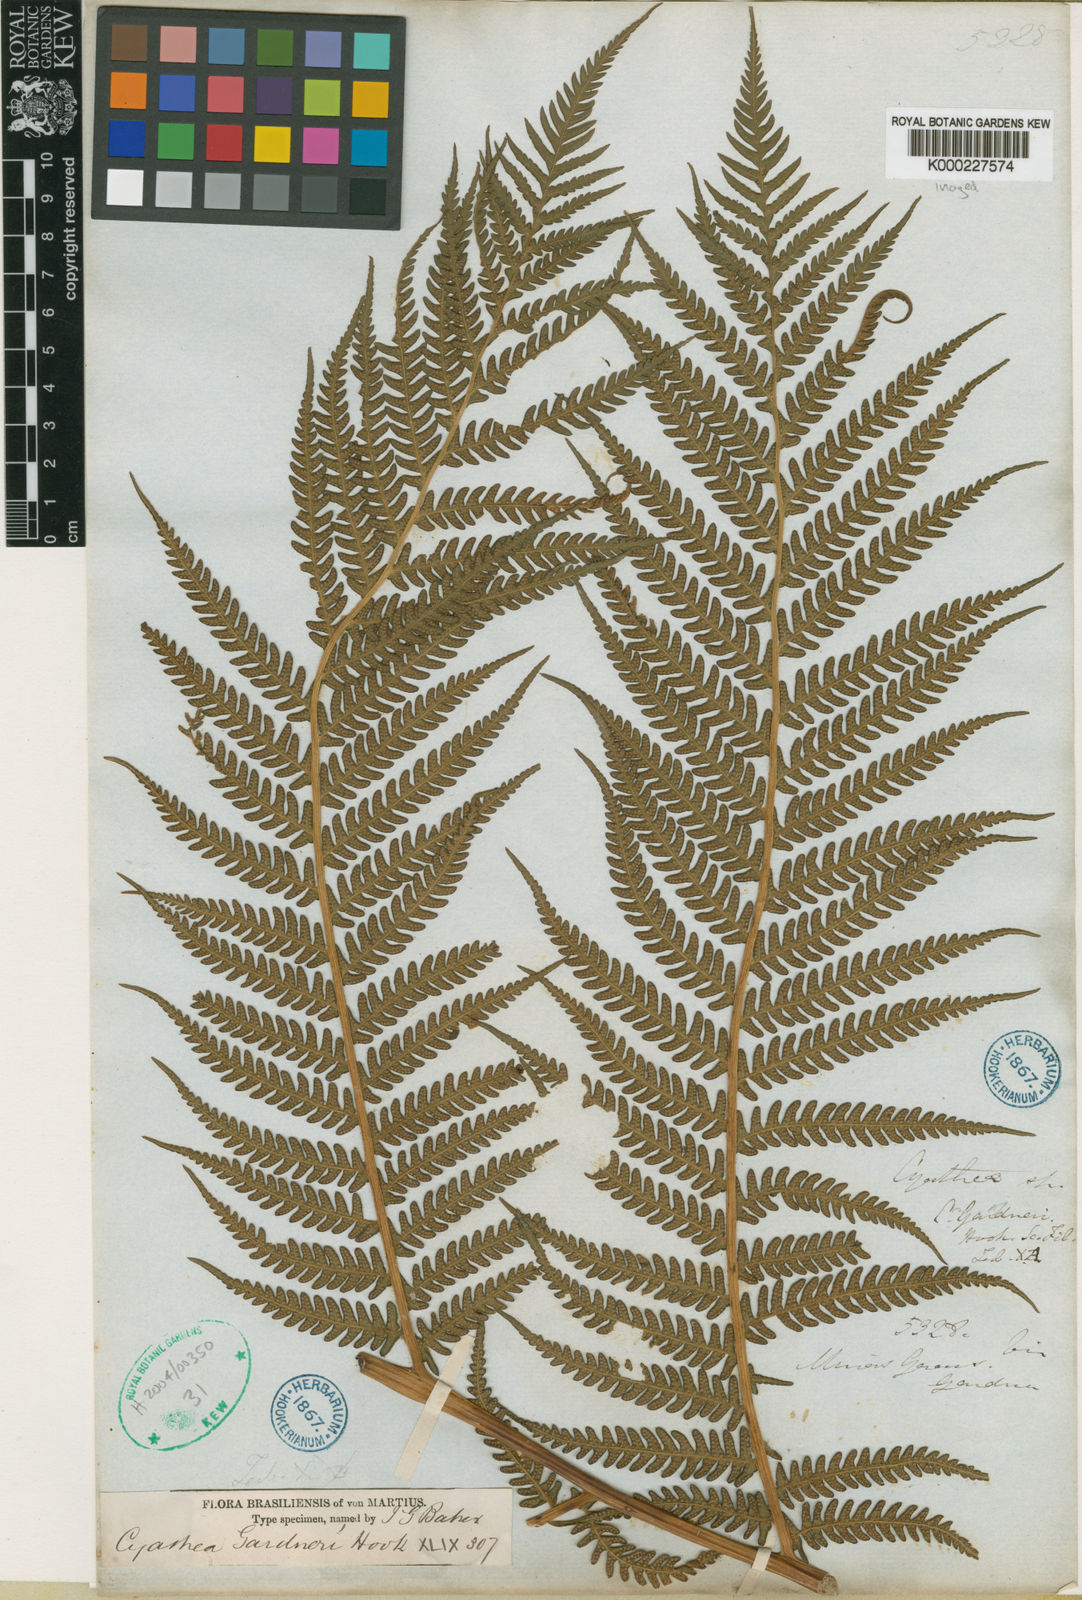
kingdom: Plantae
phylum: Tracheophyta
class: Polypodiopsida
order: Cyatheales
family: Cyatheaceae
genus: Sphaeropteris
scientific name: Sphaeropteris gardneri
